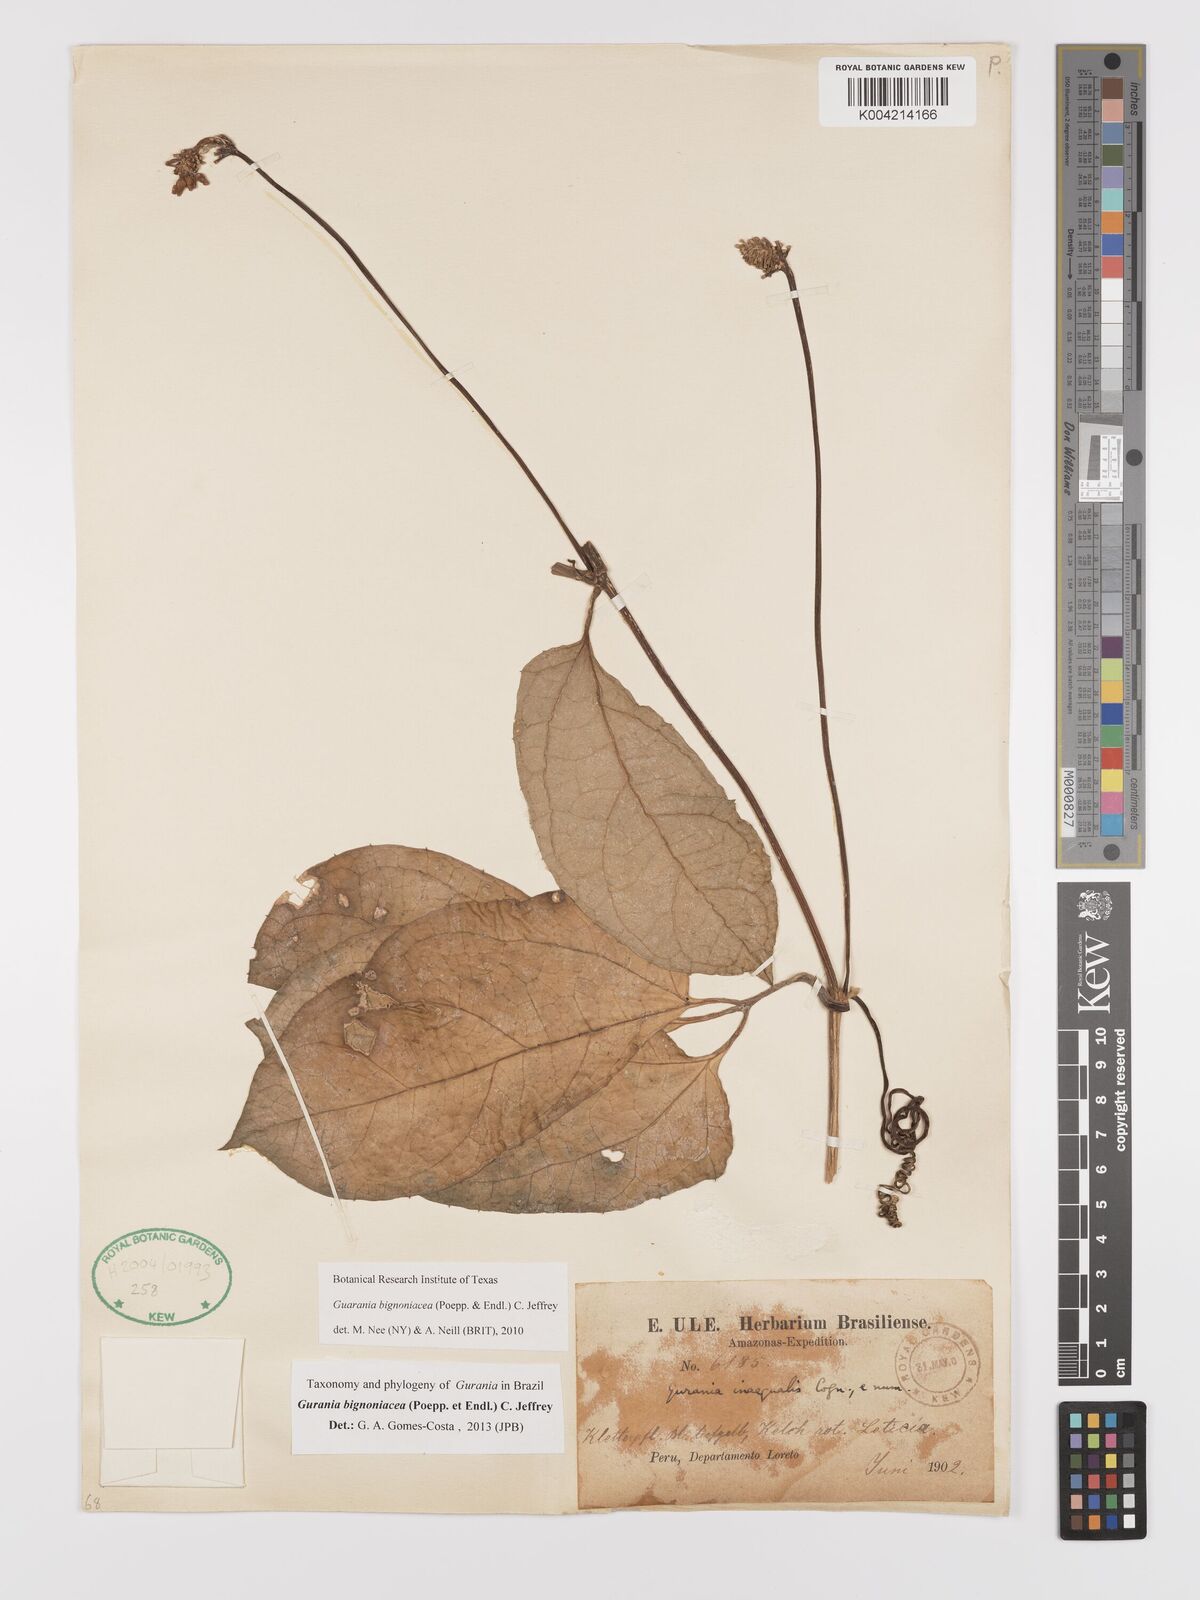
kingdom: Plantae
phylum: Tracheophyta
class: Magnoliopsida
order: Cucurbitales
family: Cucurbitaceae
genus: Gurania
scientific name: Gurania bignoniacea
